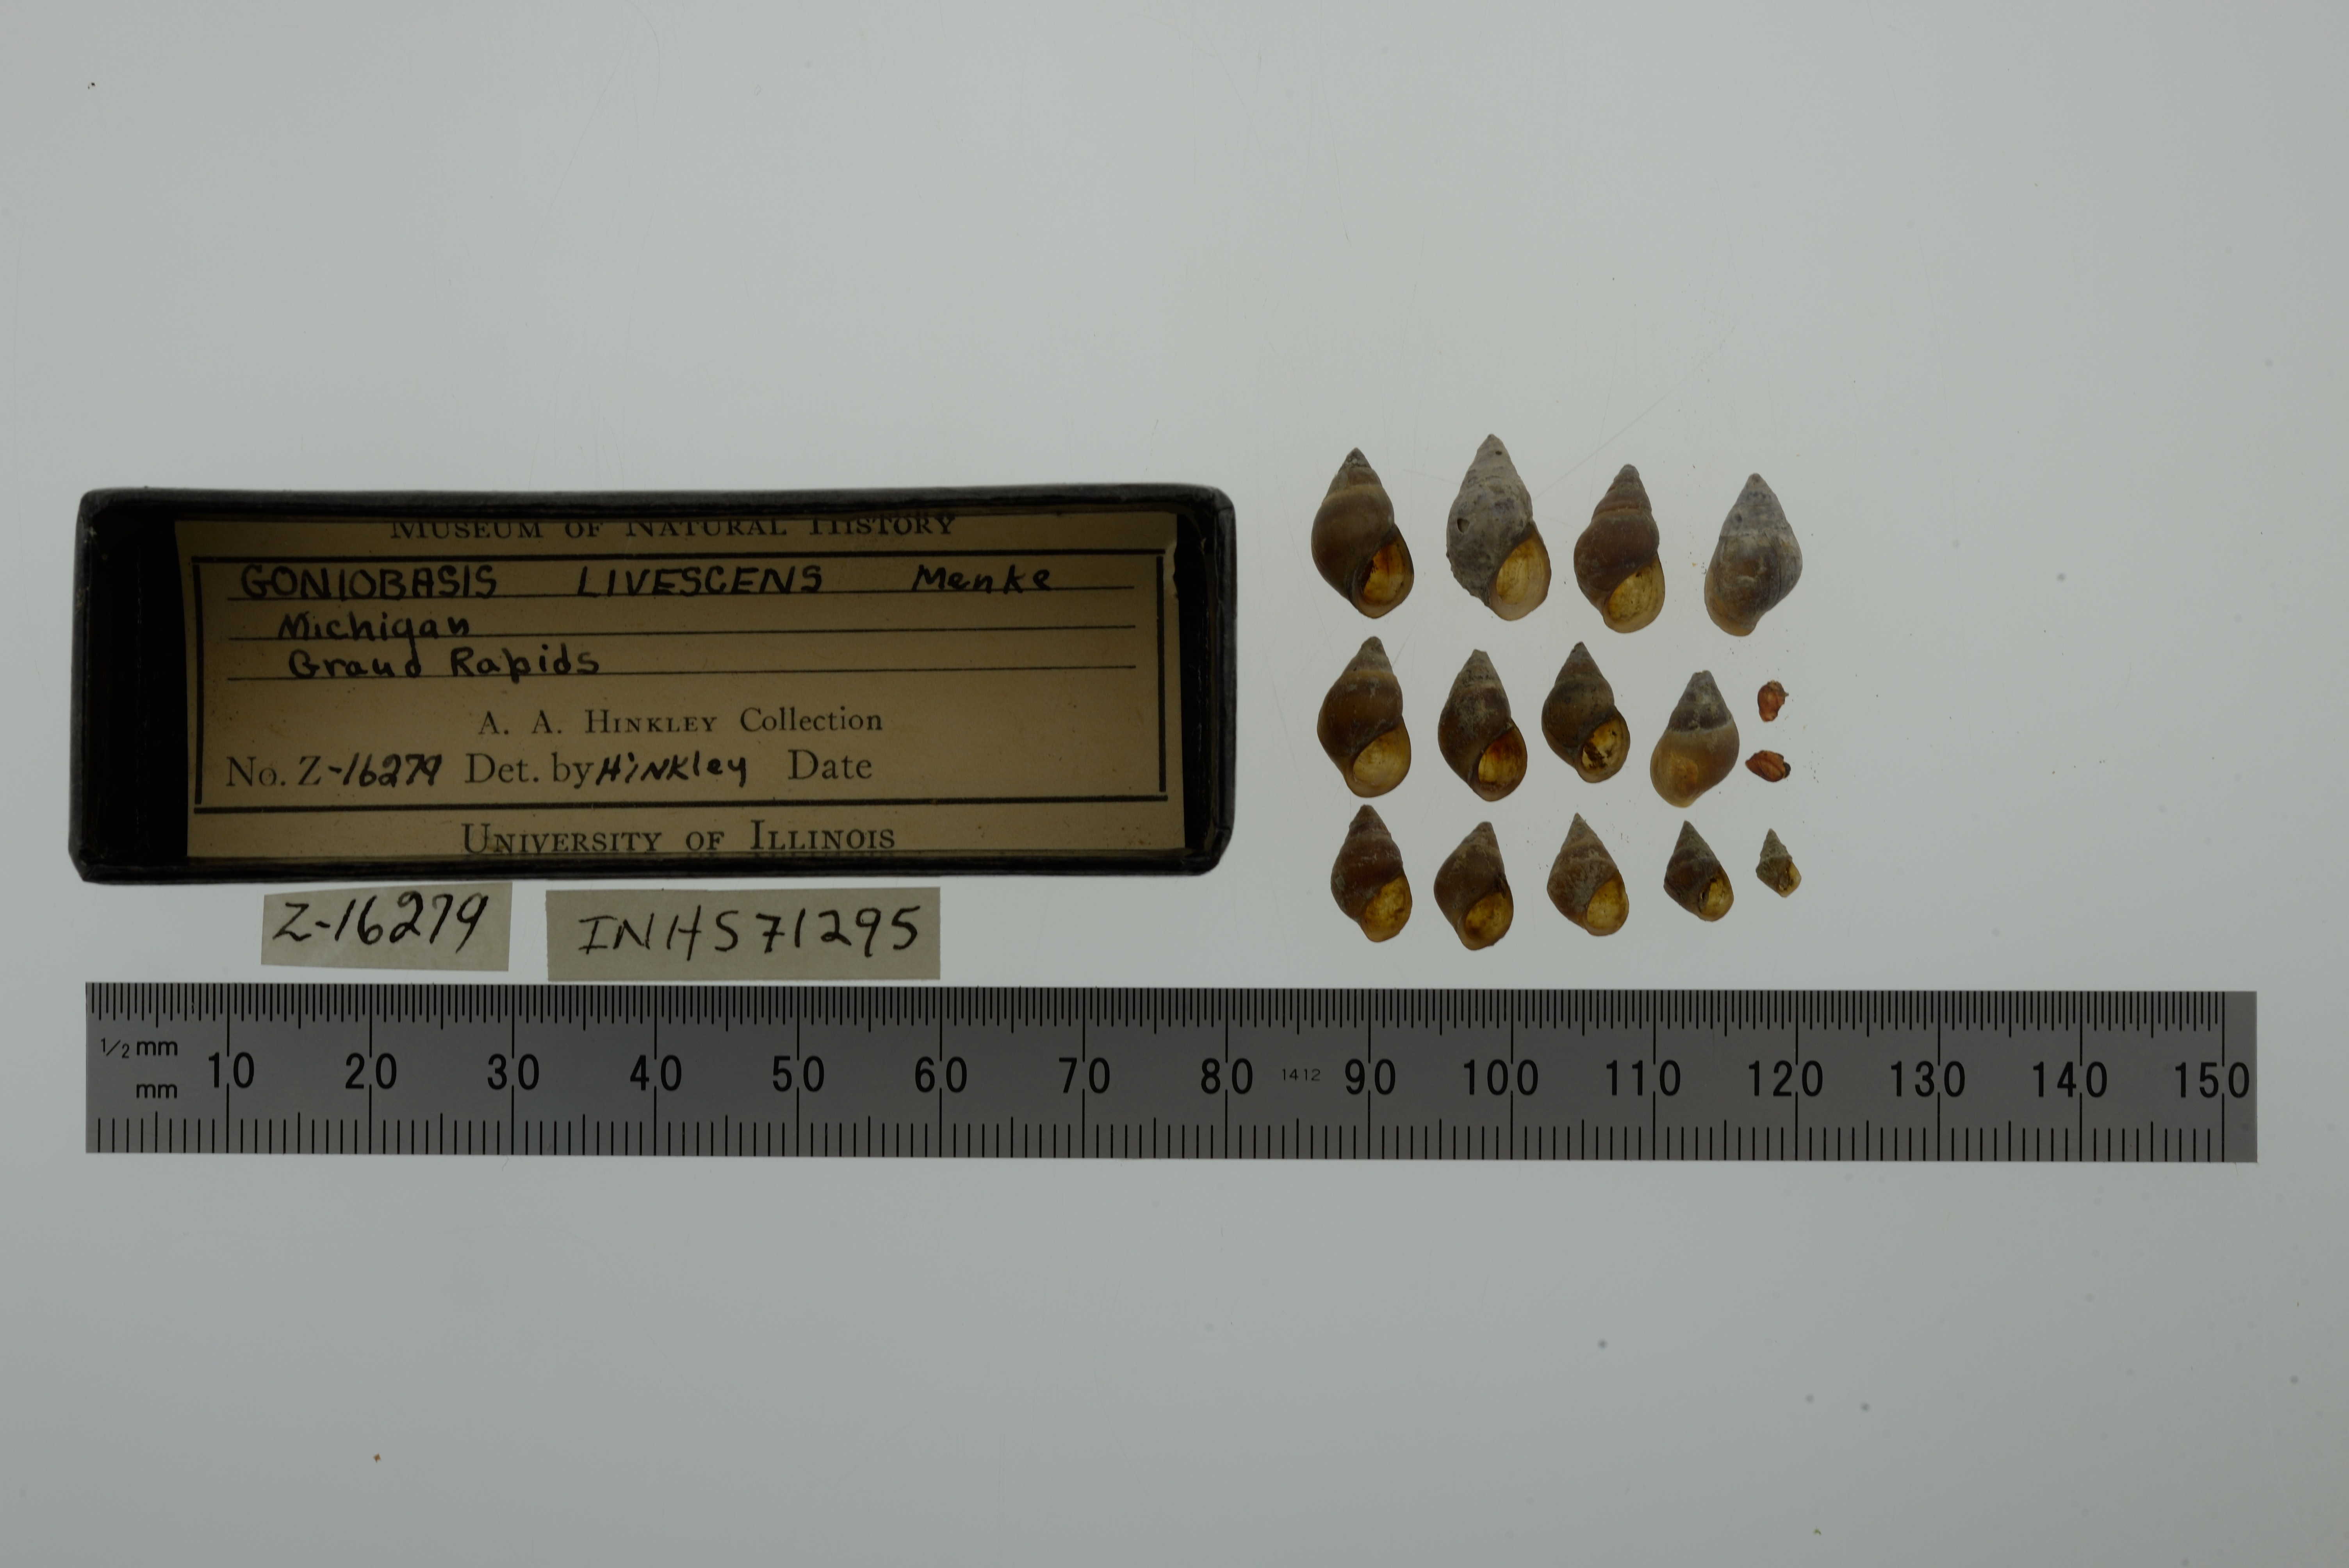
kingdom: Animalia
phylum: Mollusca
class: Gastropoda
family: Pleuroceridae
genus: Elimia
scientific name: Elimia livescens
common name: Liver elimia
